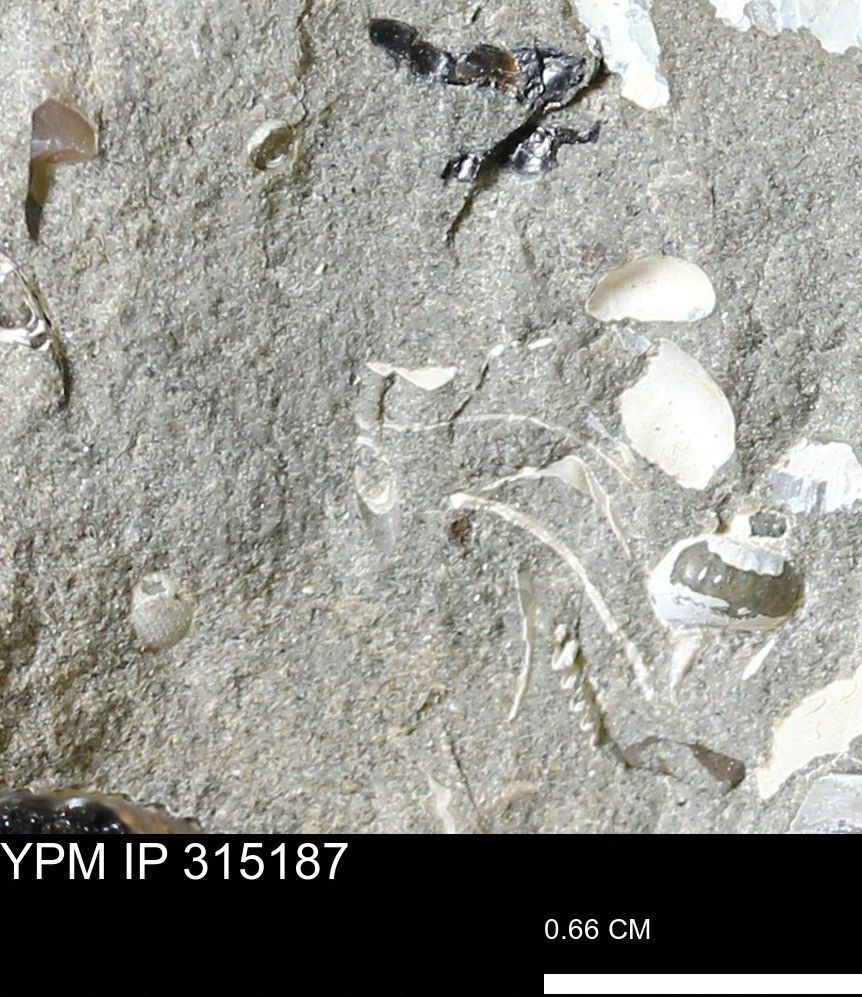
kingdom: Animalia
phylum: Mollusca
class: Bivalvia
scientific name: Bivalvia
